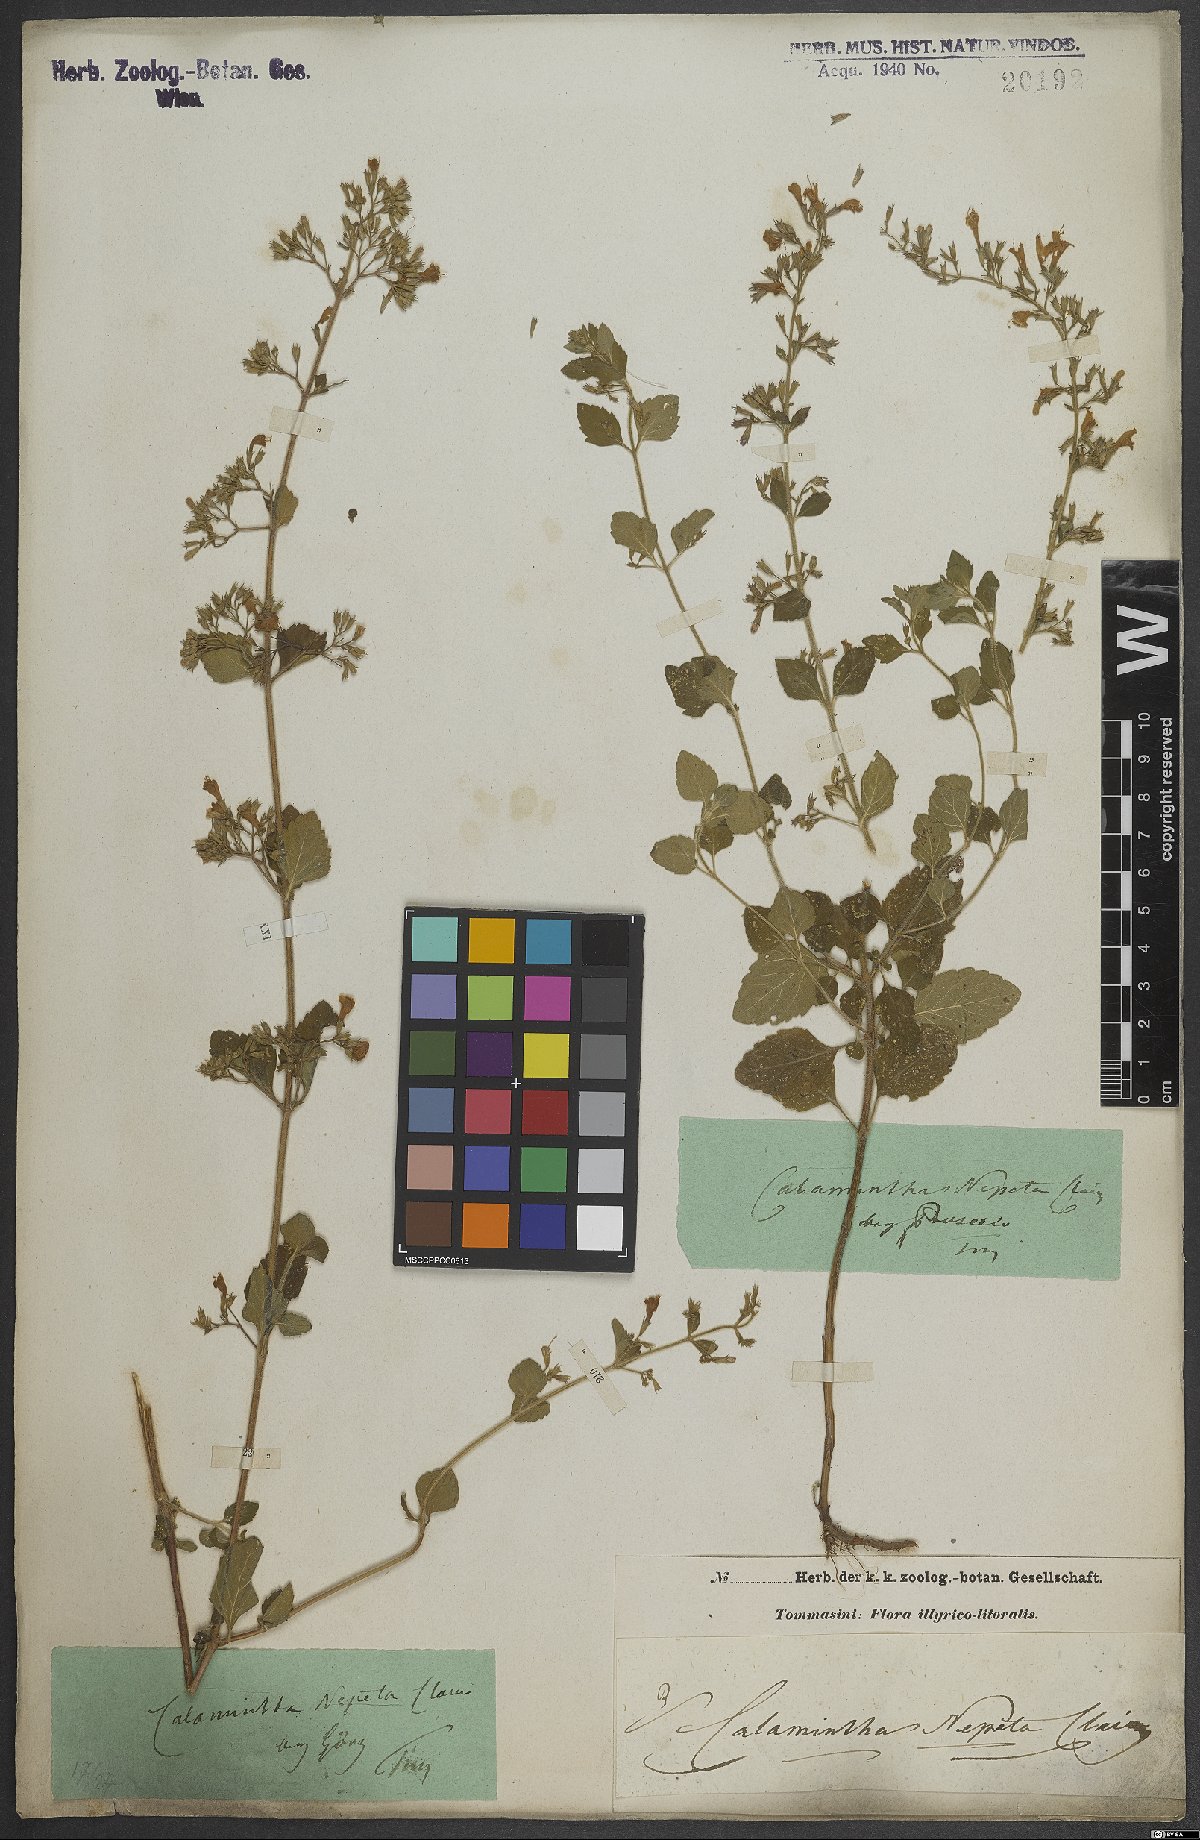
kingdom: Plantae
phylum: Tracheophyta
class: Magnoliopsida
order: Lamiales
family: Lamiaceae
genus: Clinopodium
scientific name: Clinopodium nepeta
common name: Lesser calamint
